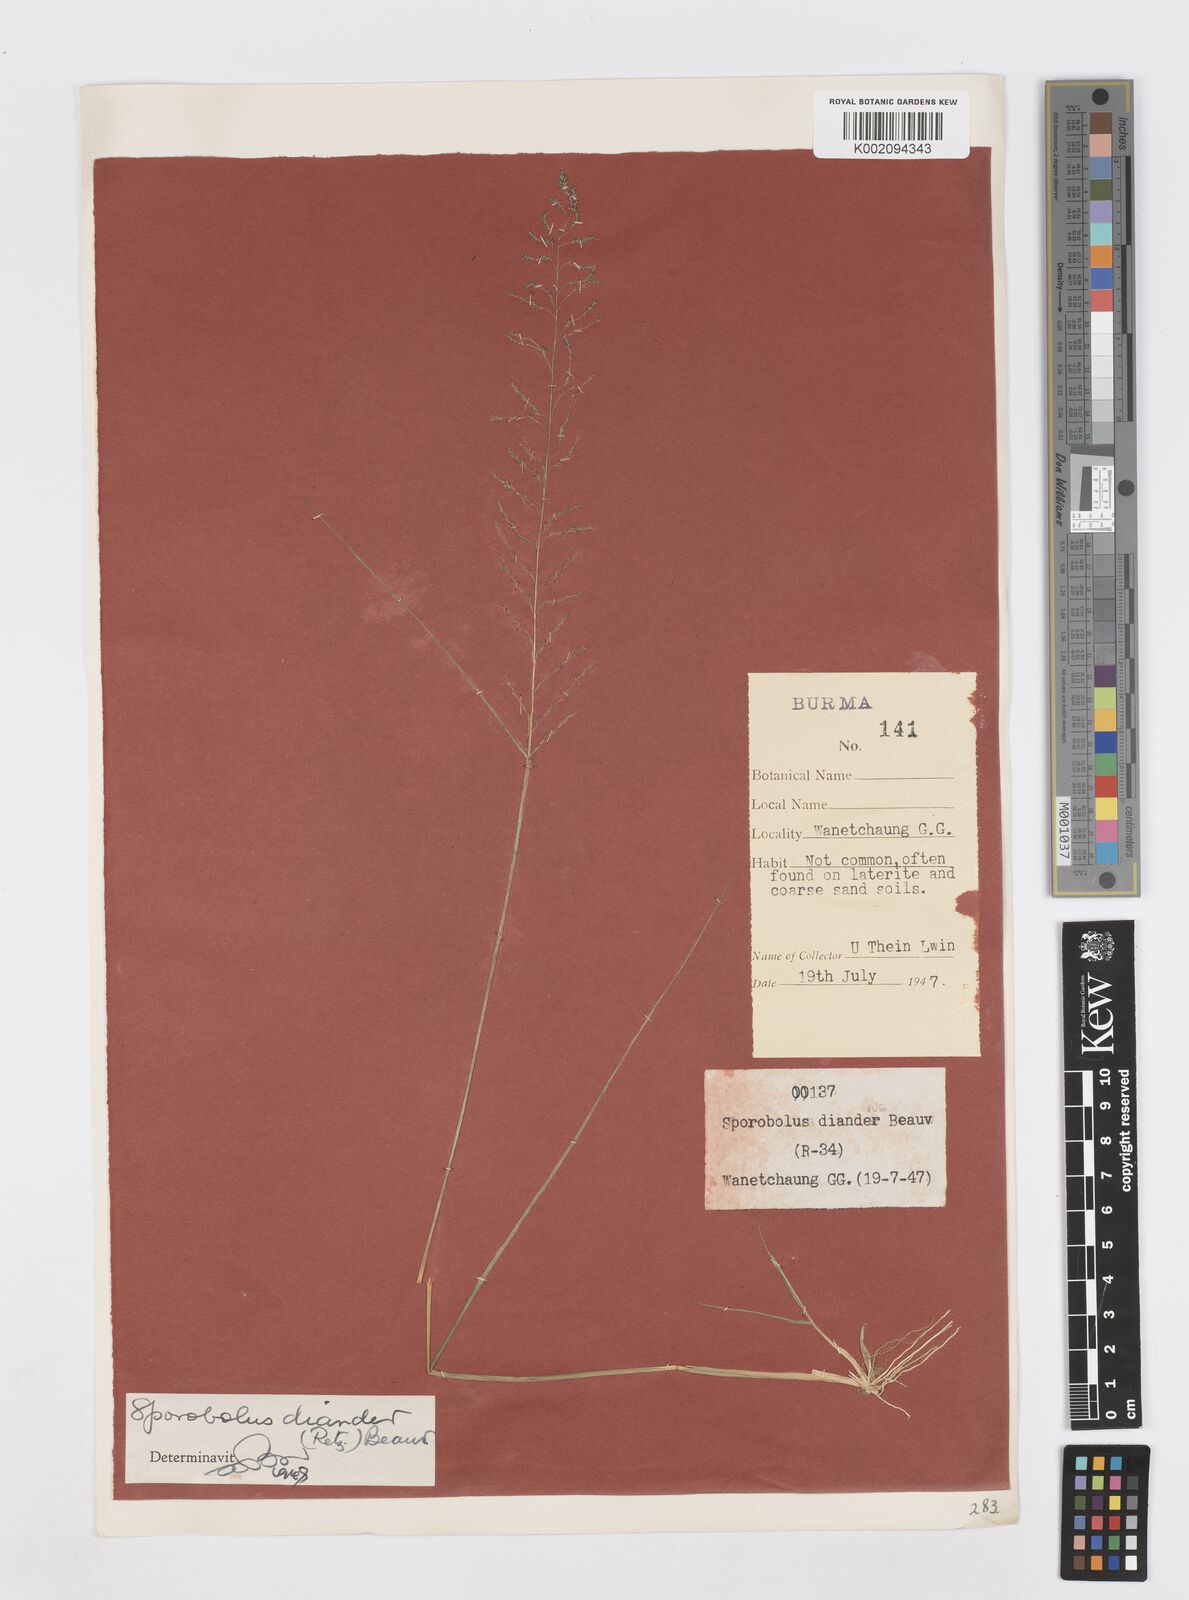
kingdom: Plantae
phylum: Tracheophyta
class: Liliopsida
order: Poales
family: Poaceae
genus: Sporobolus
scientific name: Sporobolus diandrus
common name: Tussock dropseed
